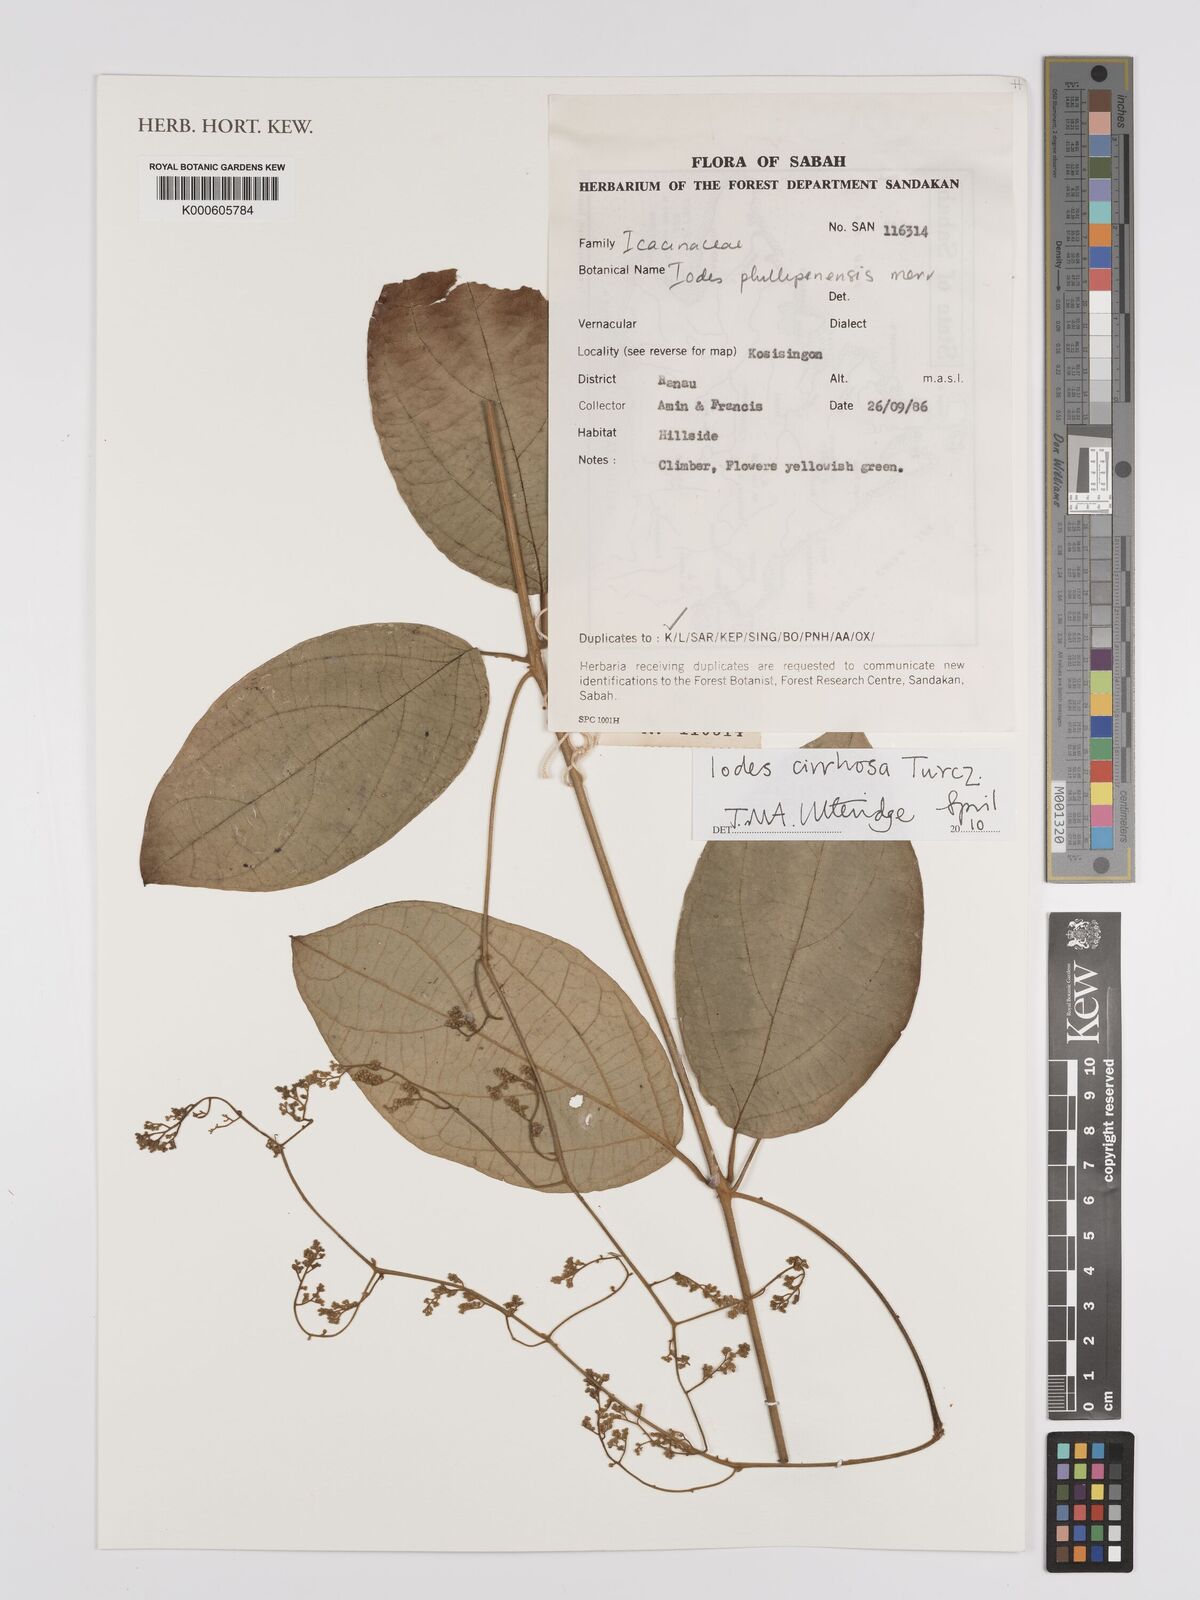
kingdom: Plantae
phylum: Tracheophyta
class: Magnoliopsida
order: Icacinales
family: Icacinaceae
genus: Iodes
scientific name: Iodes cirrhosa
